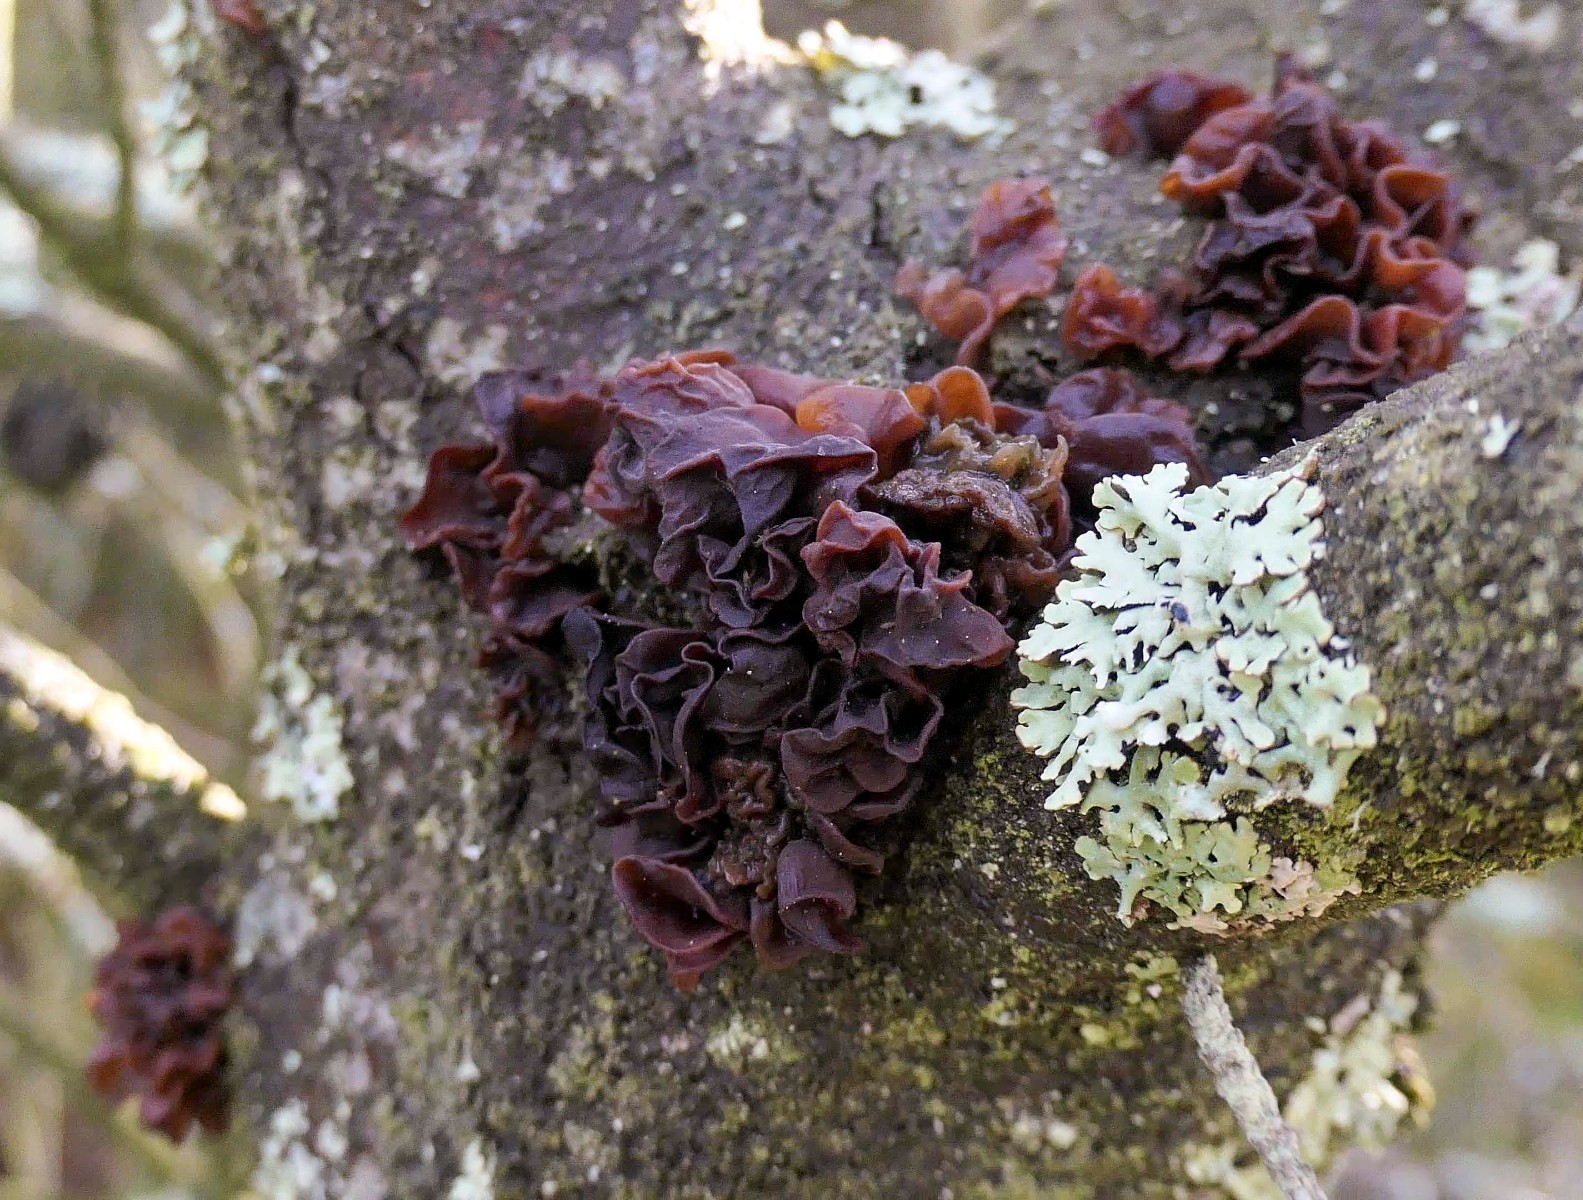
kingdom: Fungi
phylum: Basidiomycota
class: Tremellomycetes
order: Tremellales
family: Tremellaceae
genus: Phaeotremella
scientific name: Phaeotremella foliacea
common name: brun bævresvamp
